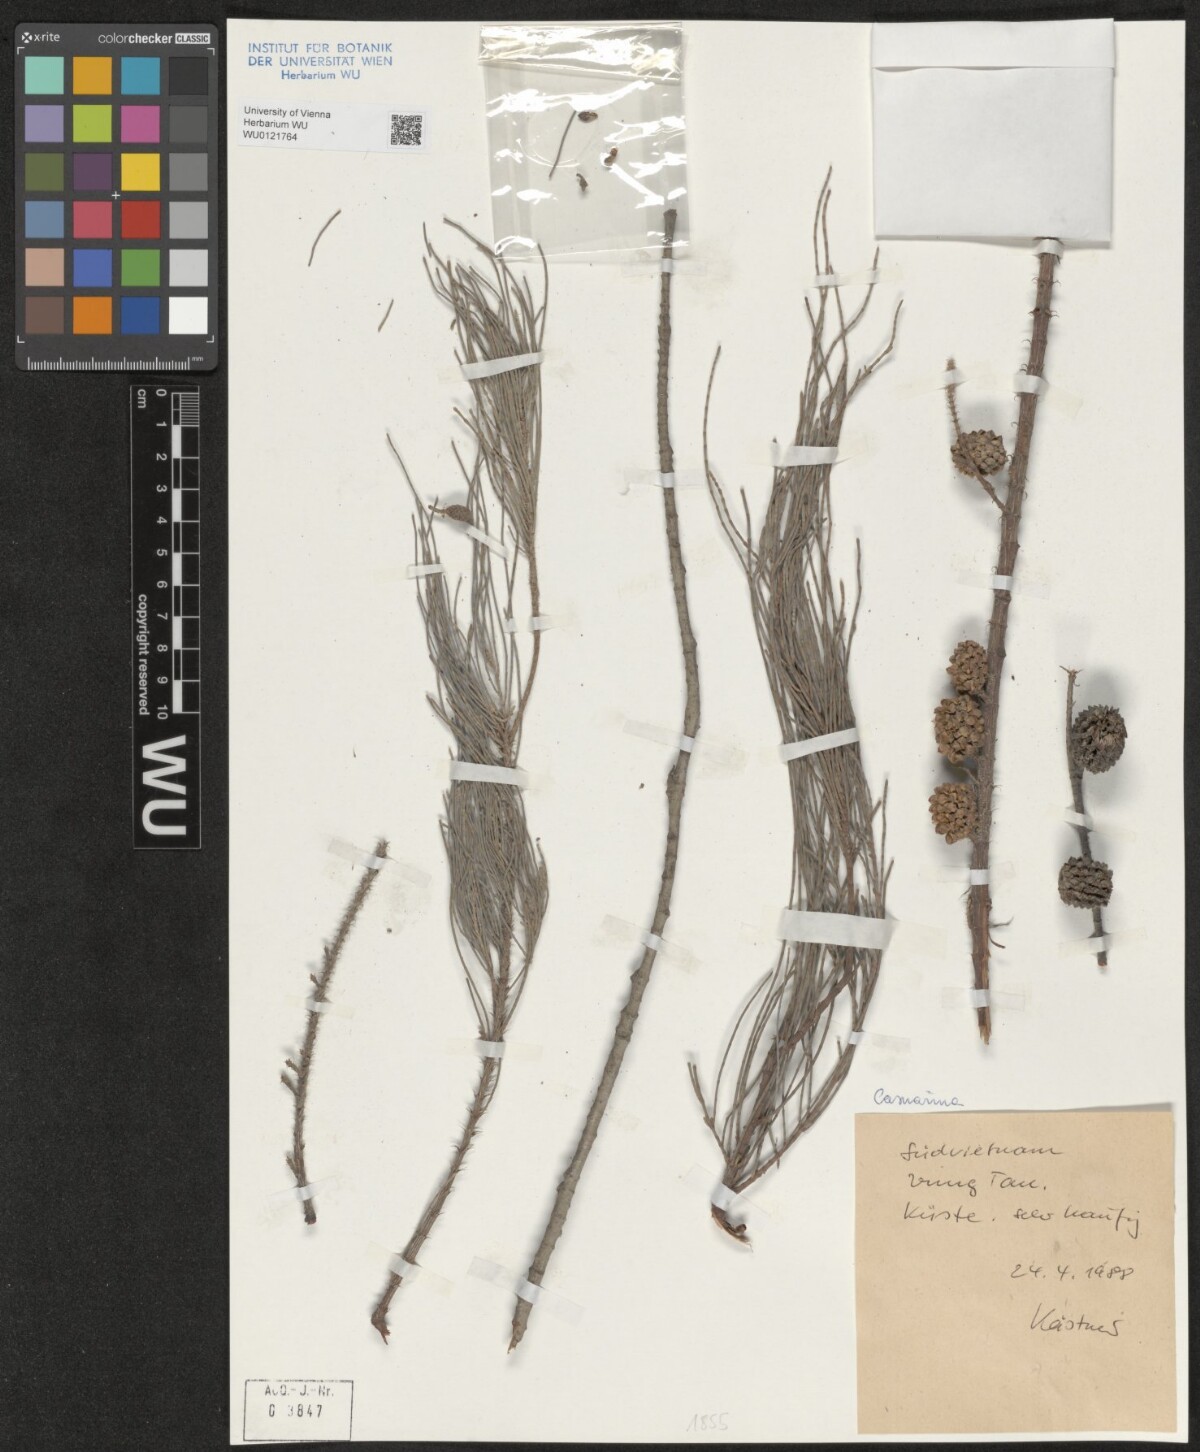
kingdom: Plantae
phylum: Tracheophyta
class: Magnoliopsida
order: Fagales
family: Casuarinaceae
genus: Casuarina
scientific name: Casuarina
